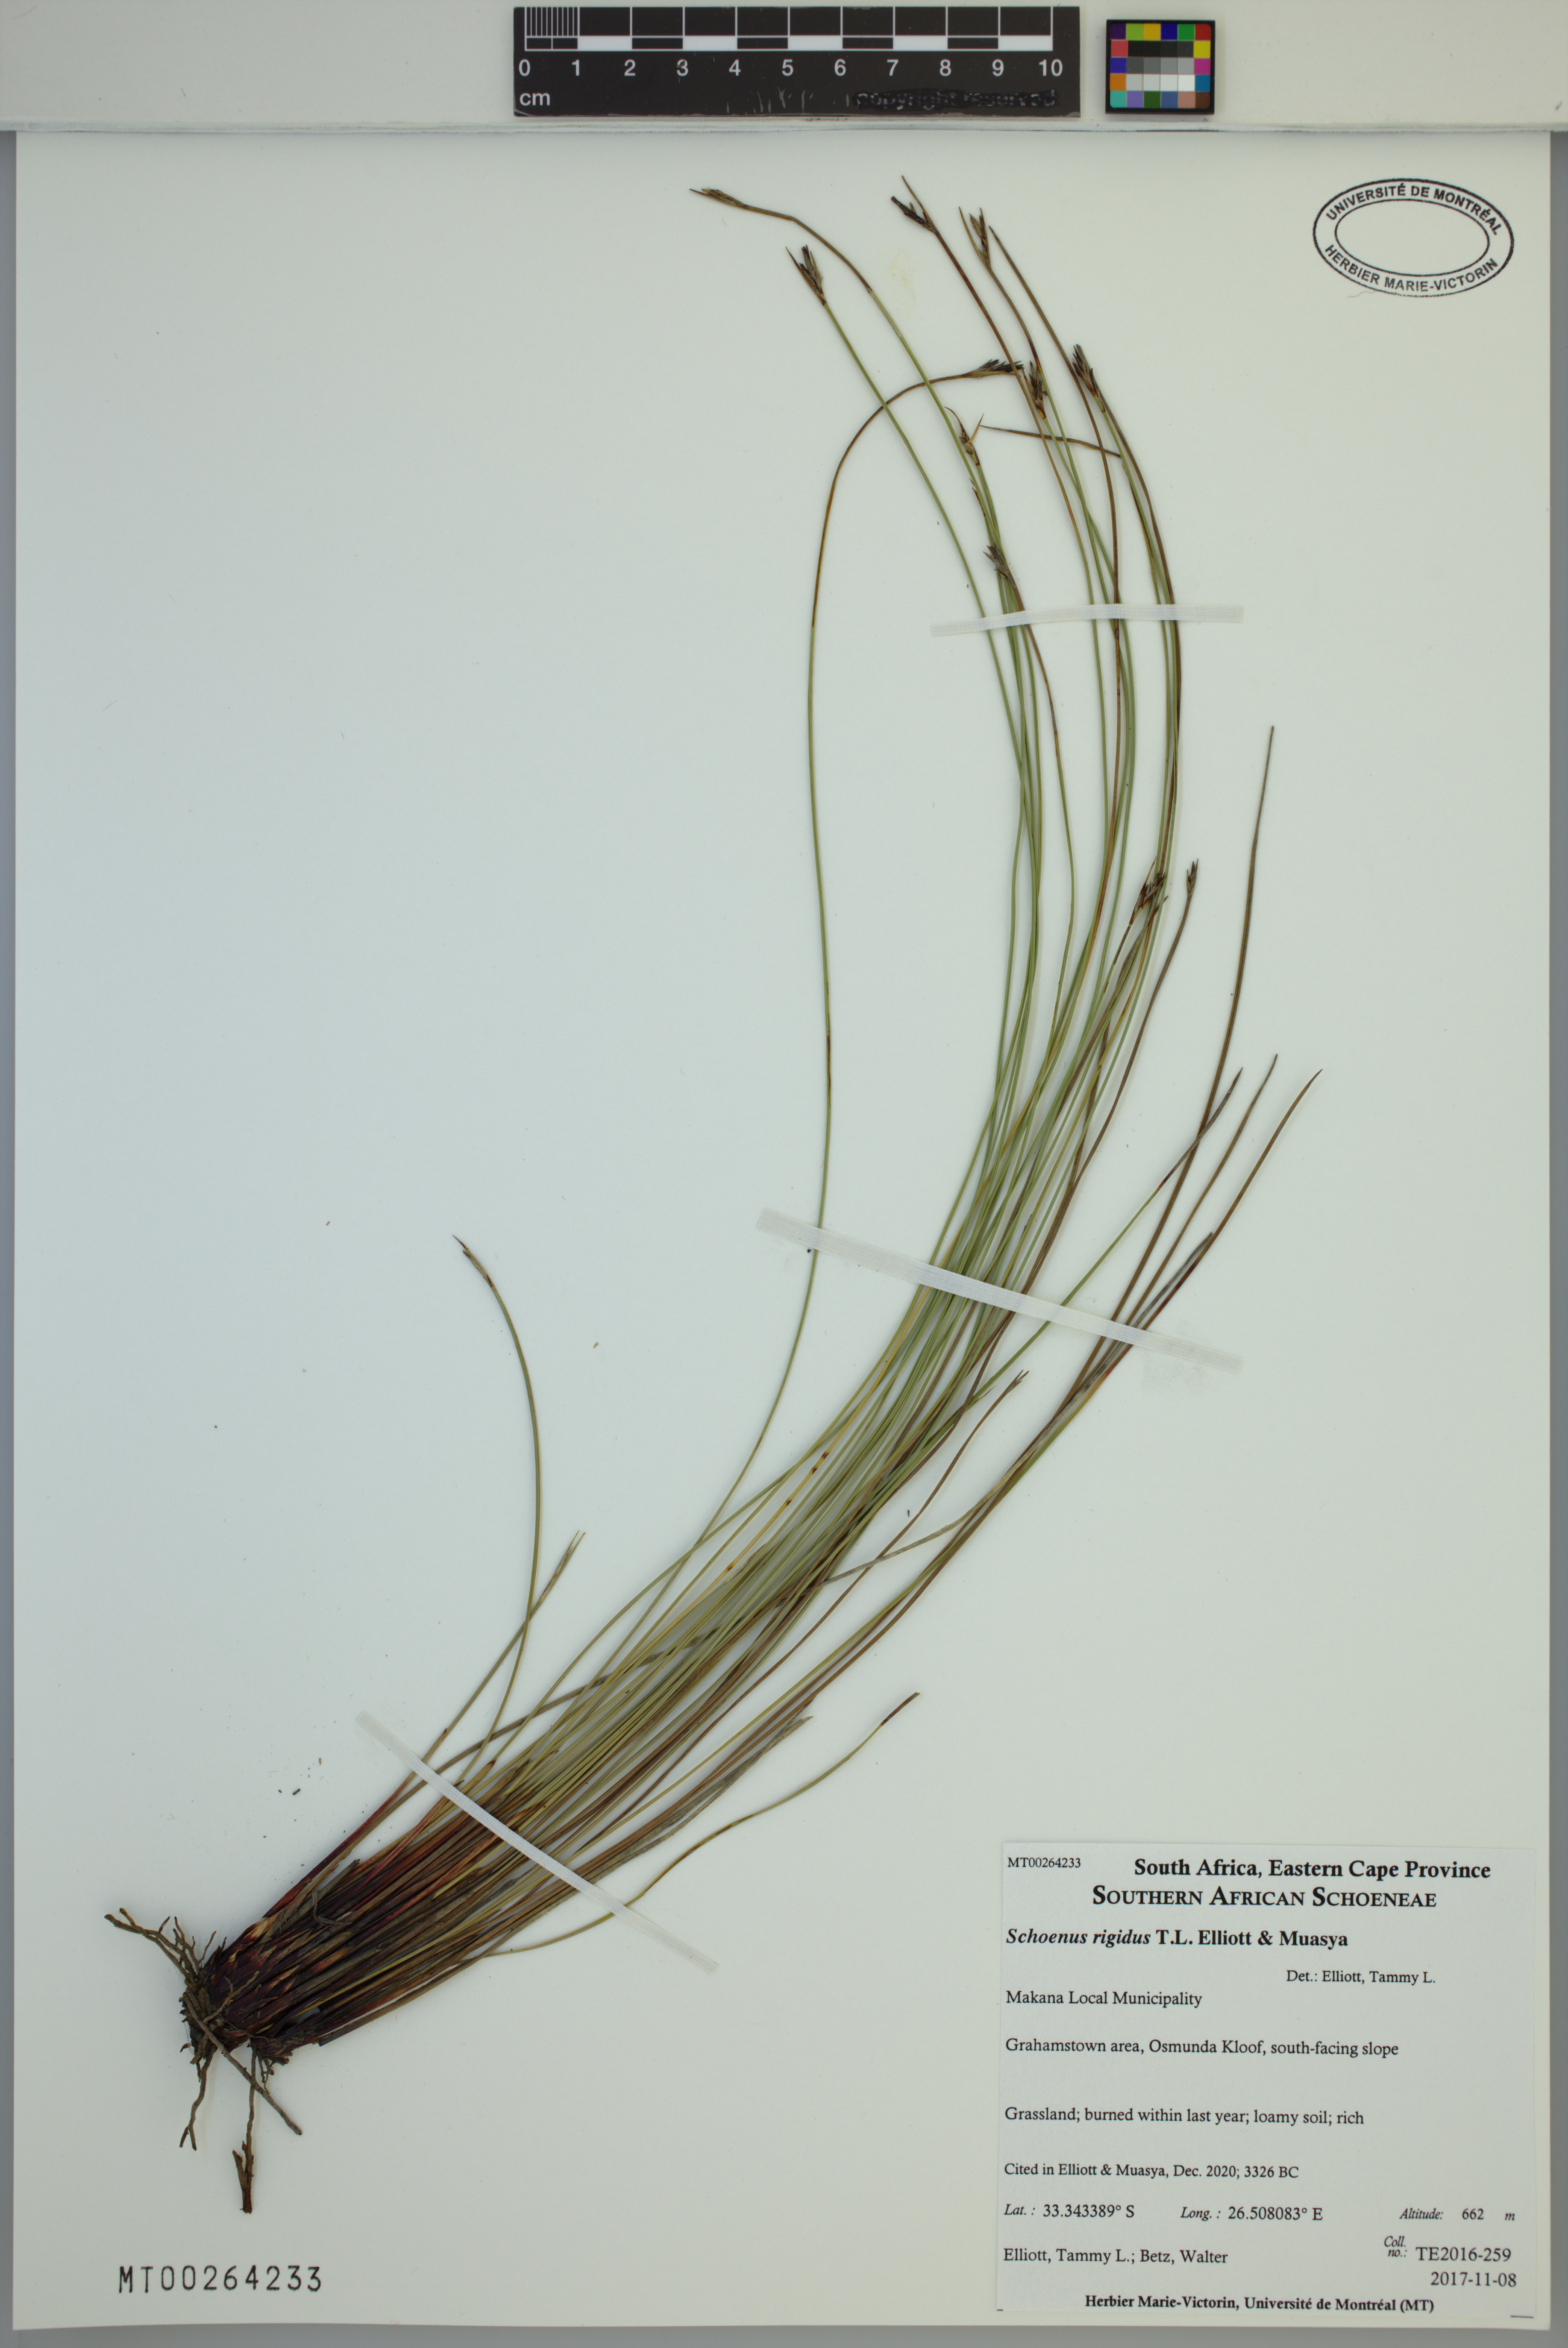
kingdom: Plantae
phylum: Tracheophyta
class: Liliopsida
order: Poales
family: Cyperaceae
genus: Schoenus
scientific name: Schoenus rigidus
